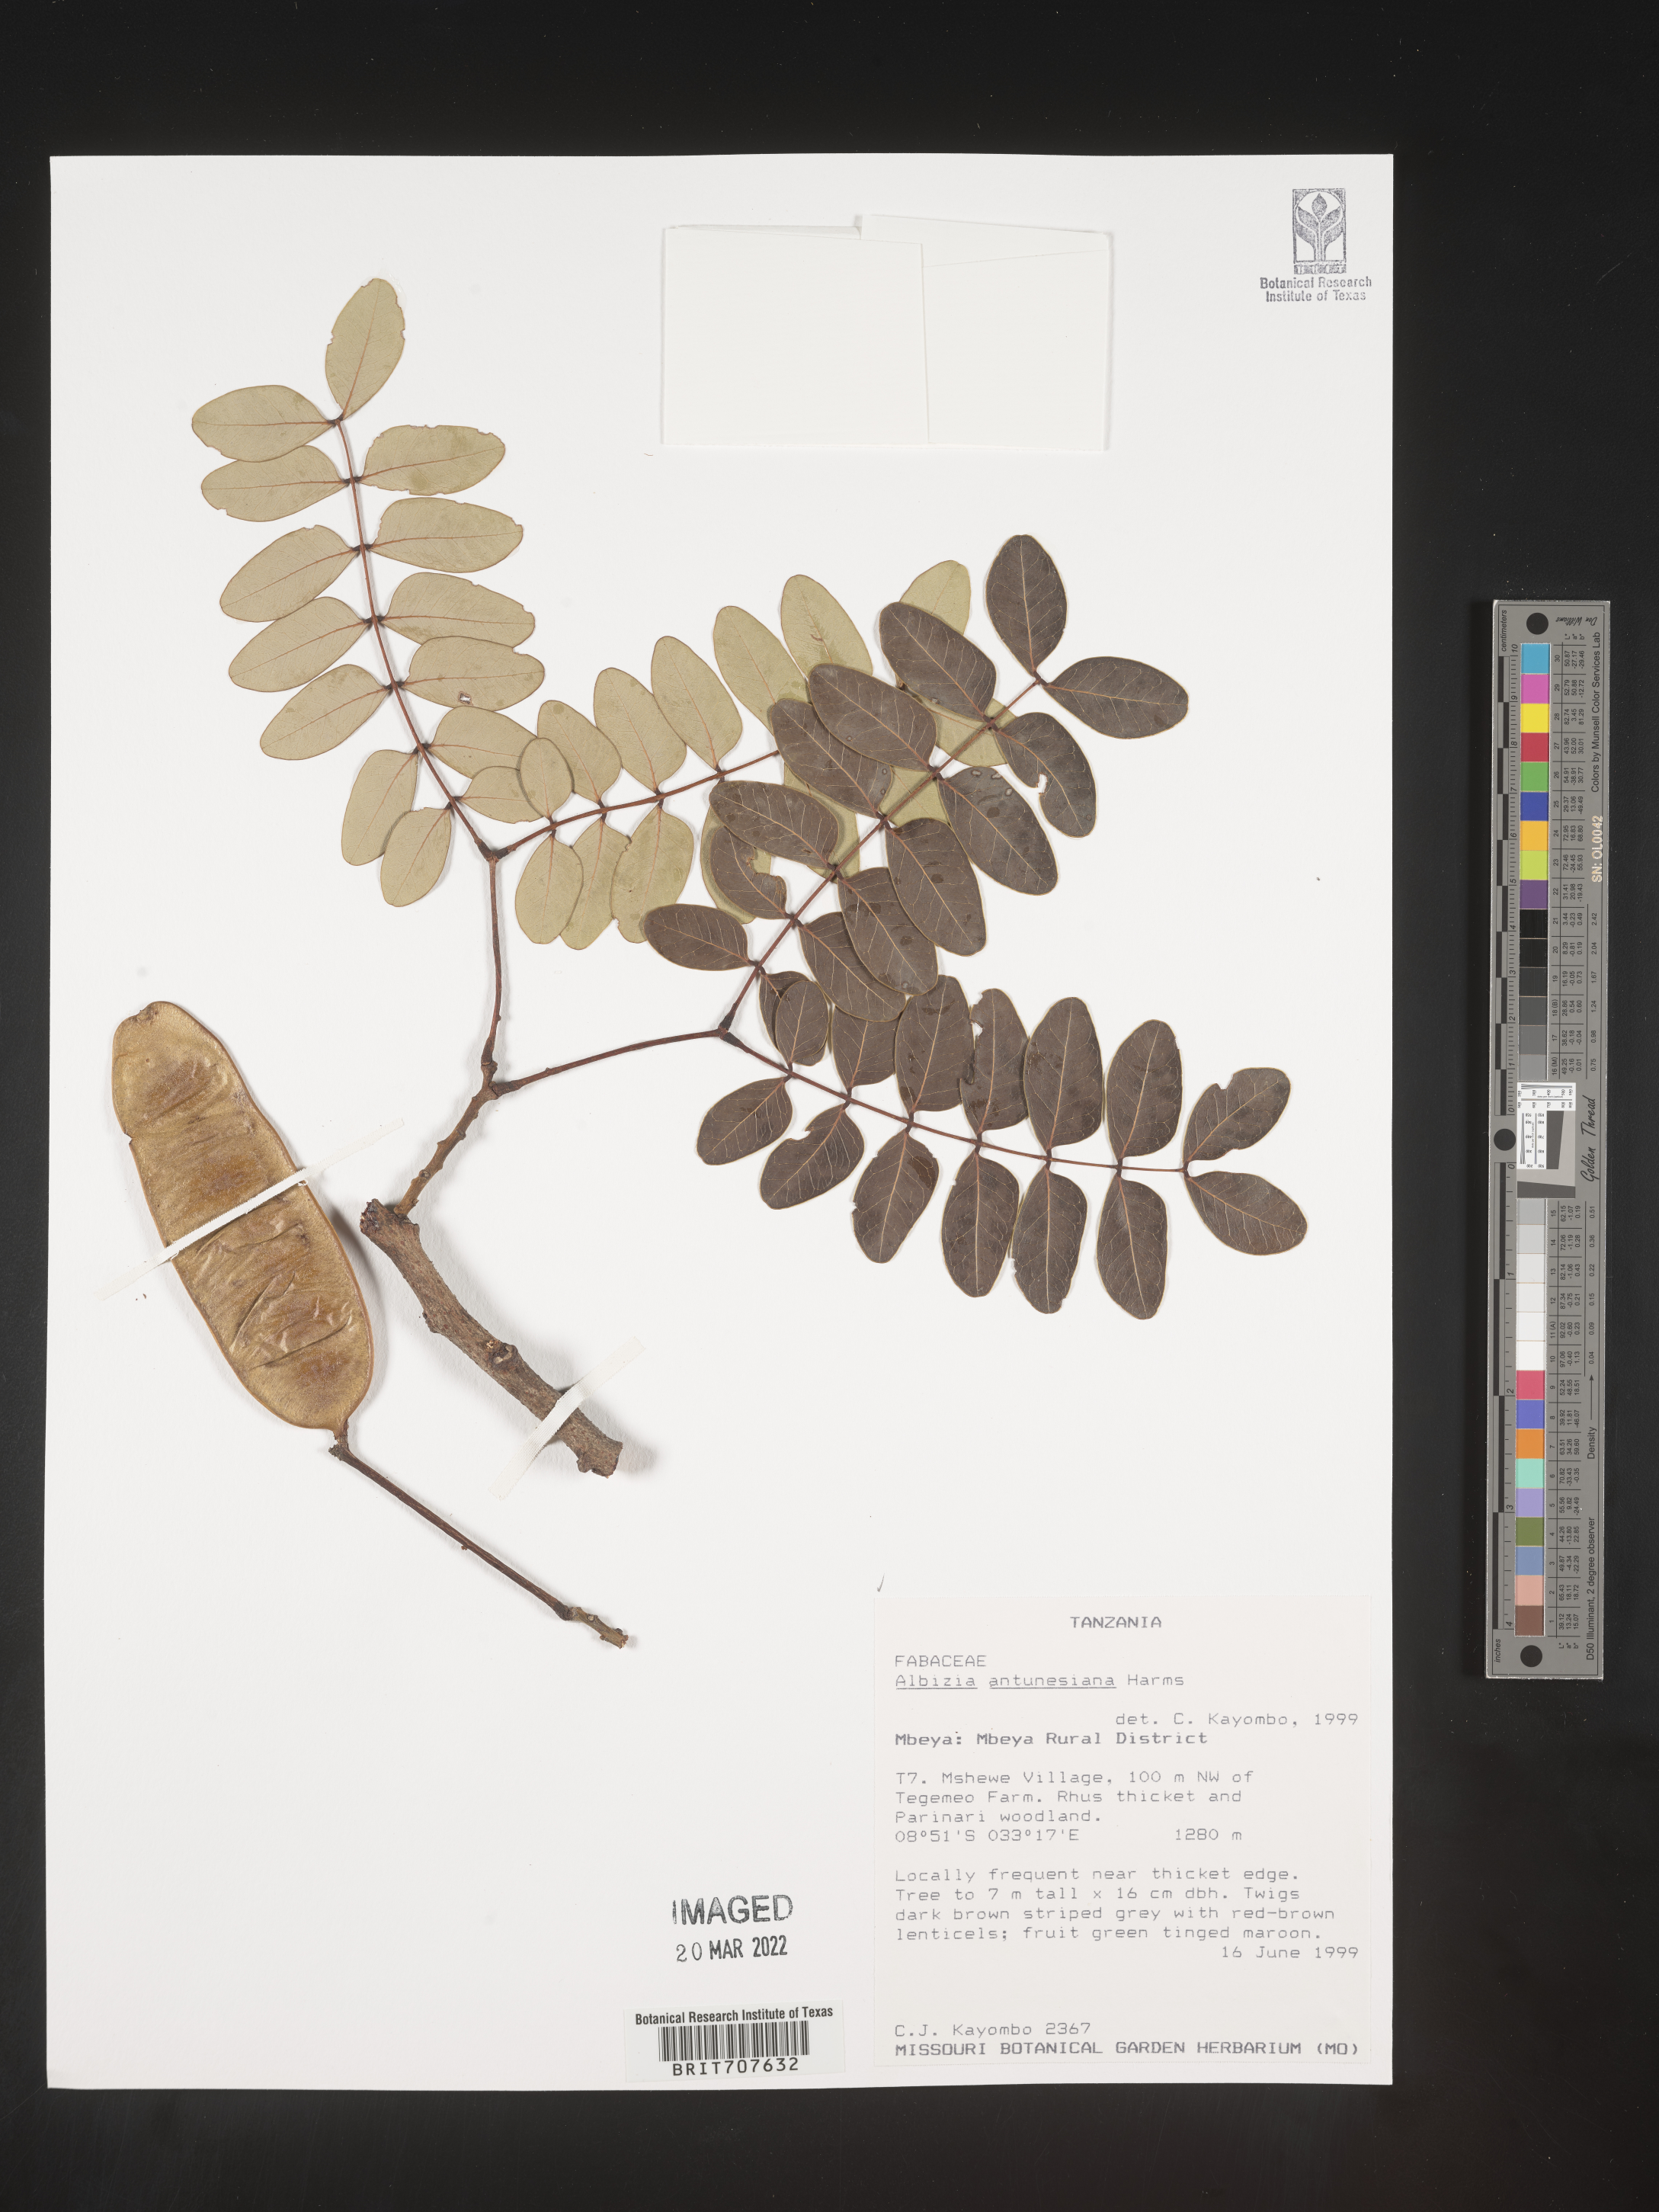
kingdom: Plantae
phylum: Tracheophyta
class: Magnoliopsida
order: Fabales
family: Fabaceae
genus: Albizia
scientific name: Albizia
